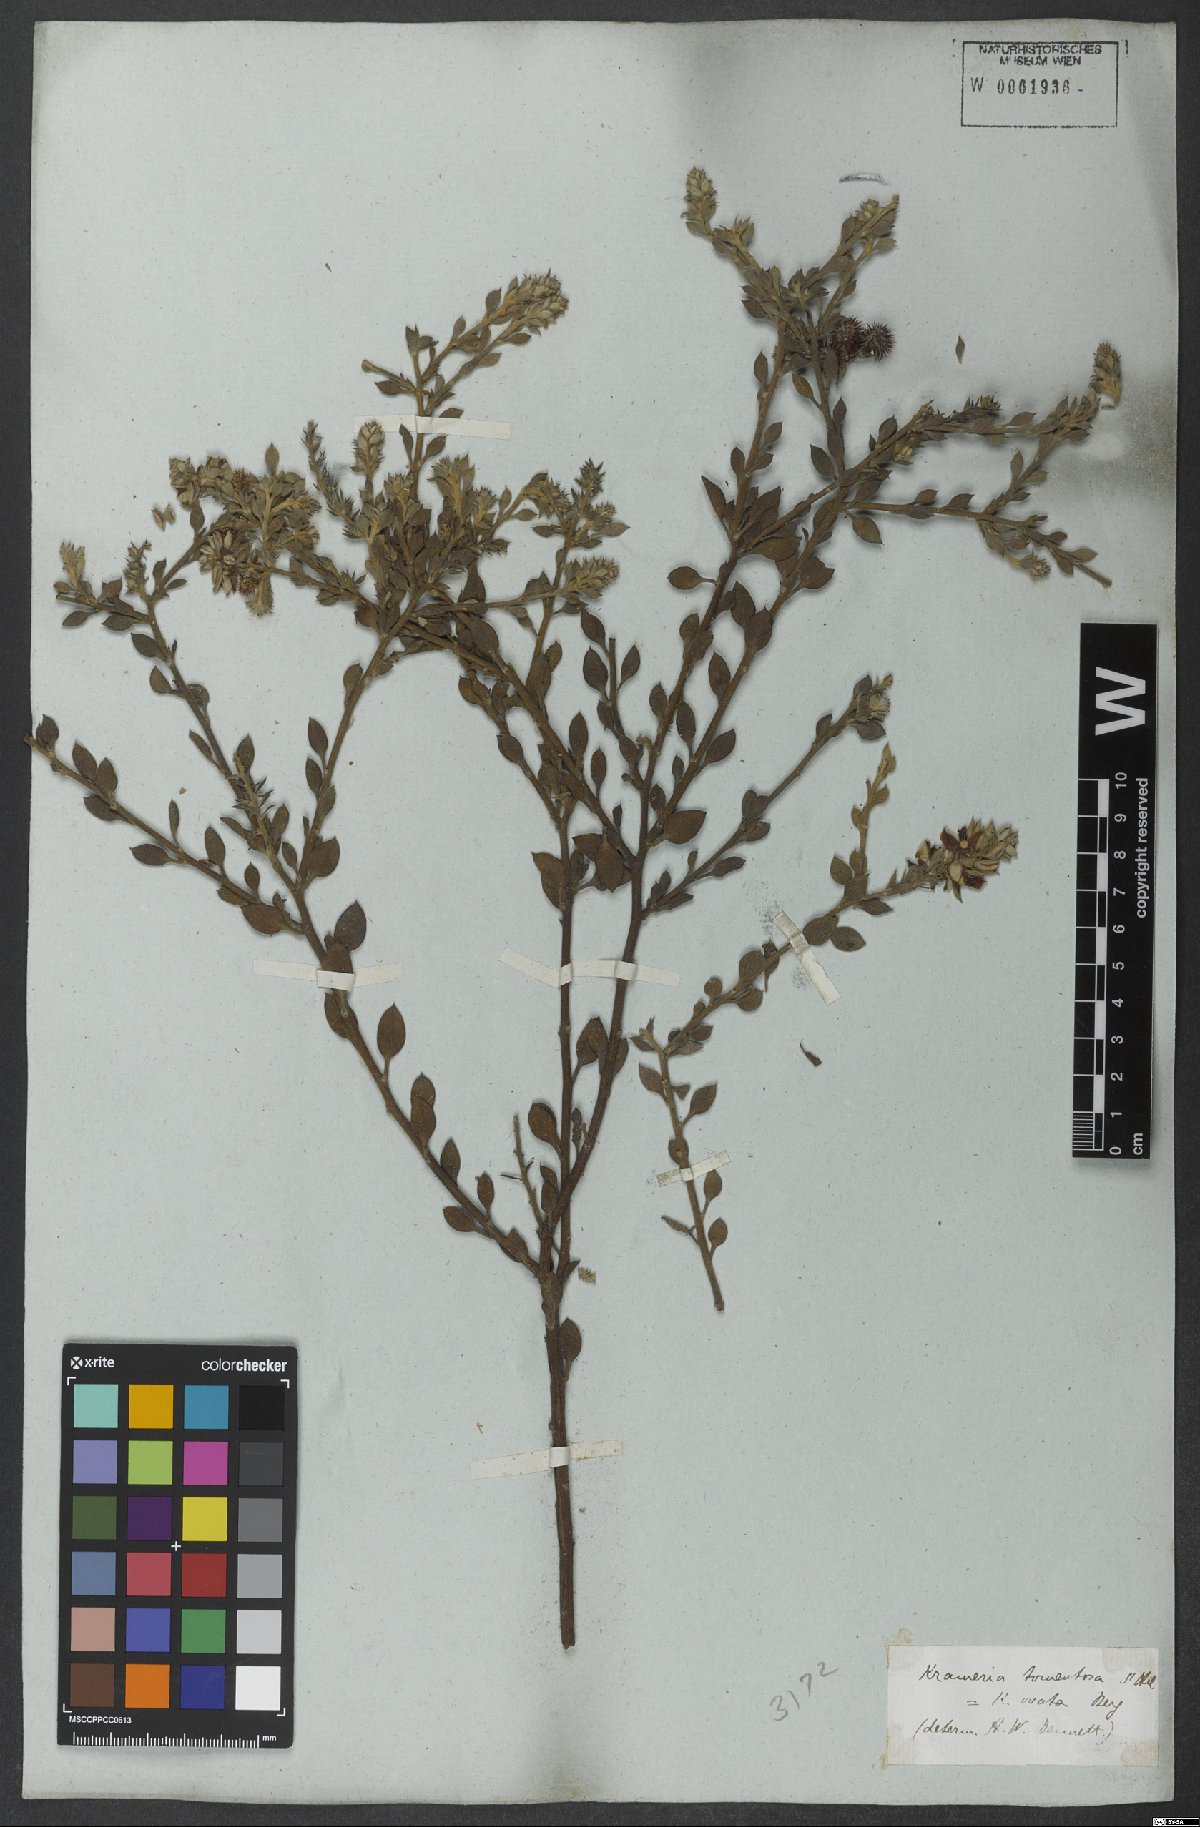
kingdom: Plantae
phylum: Tracheophyta
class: Magnoliopsida
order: Zygophyllales
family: Krameriaceae
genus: Krameria
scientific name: Krameria tomentosa
